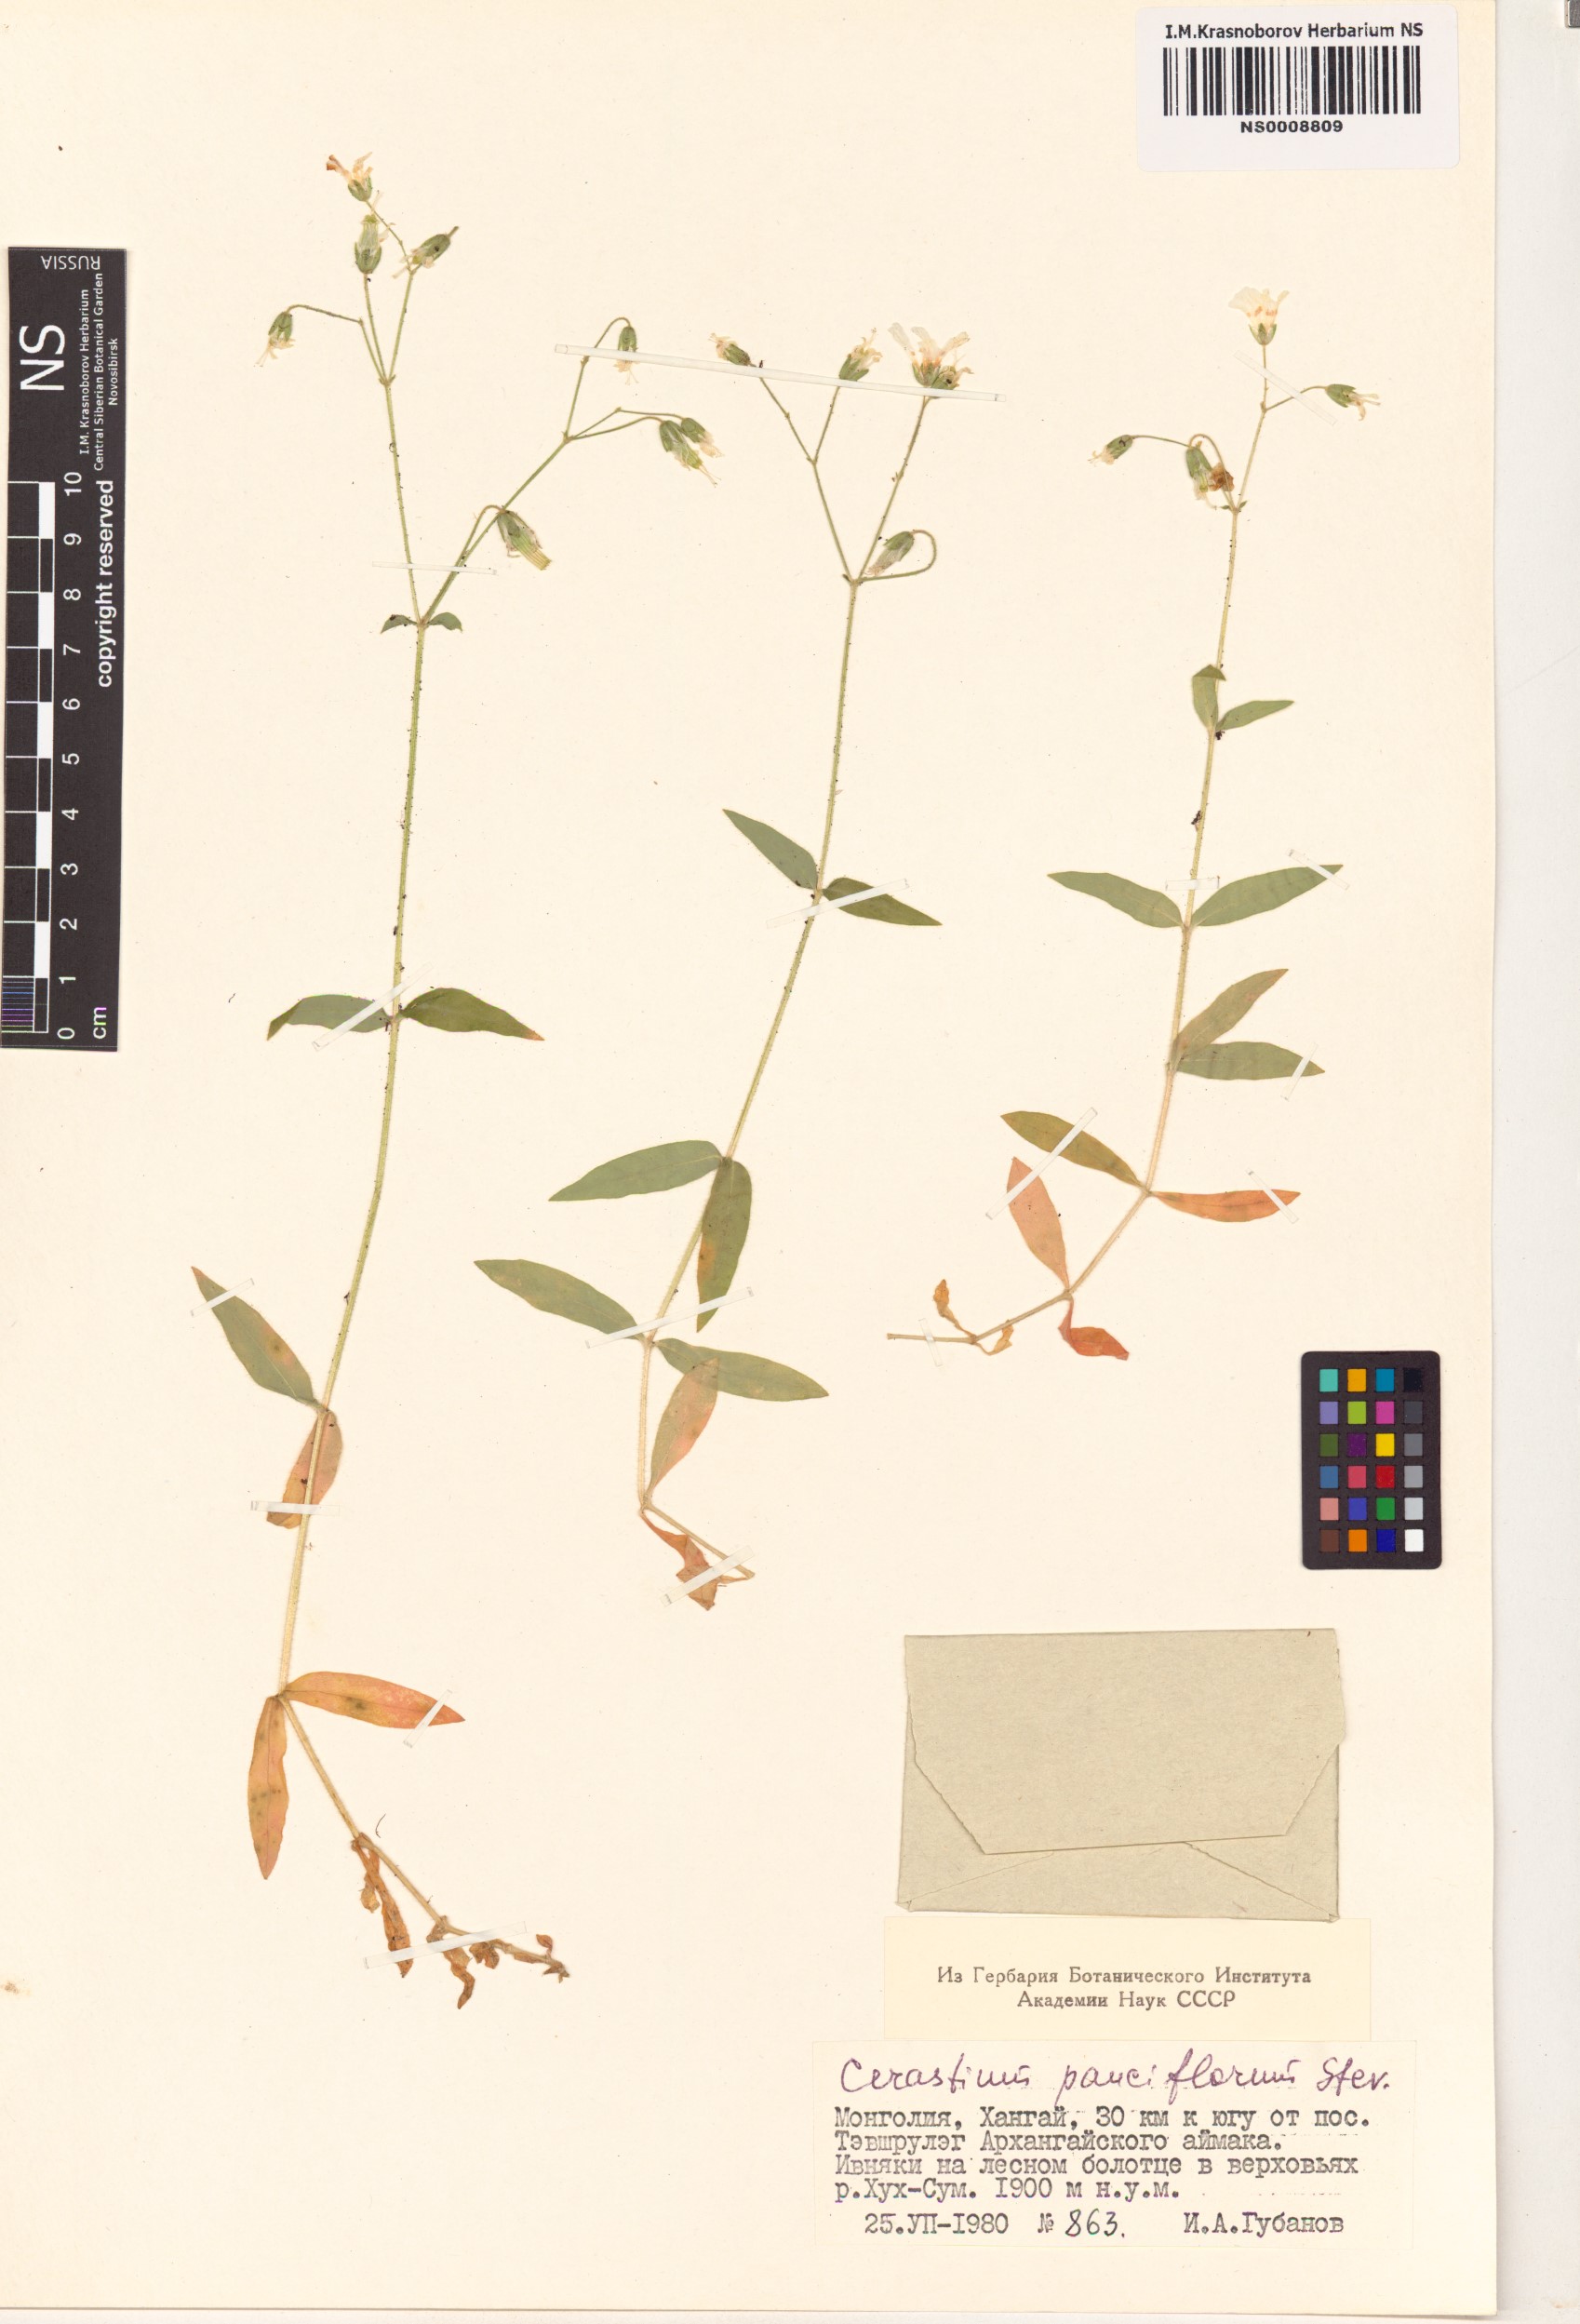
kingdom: Plantae
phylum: Tracheophyta
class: Magnoliopsida
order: Caryophyllales
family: Caryophyllaceae
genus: Cerastium
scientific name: Cerastium pauciflorum
